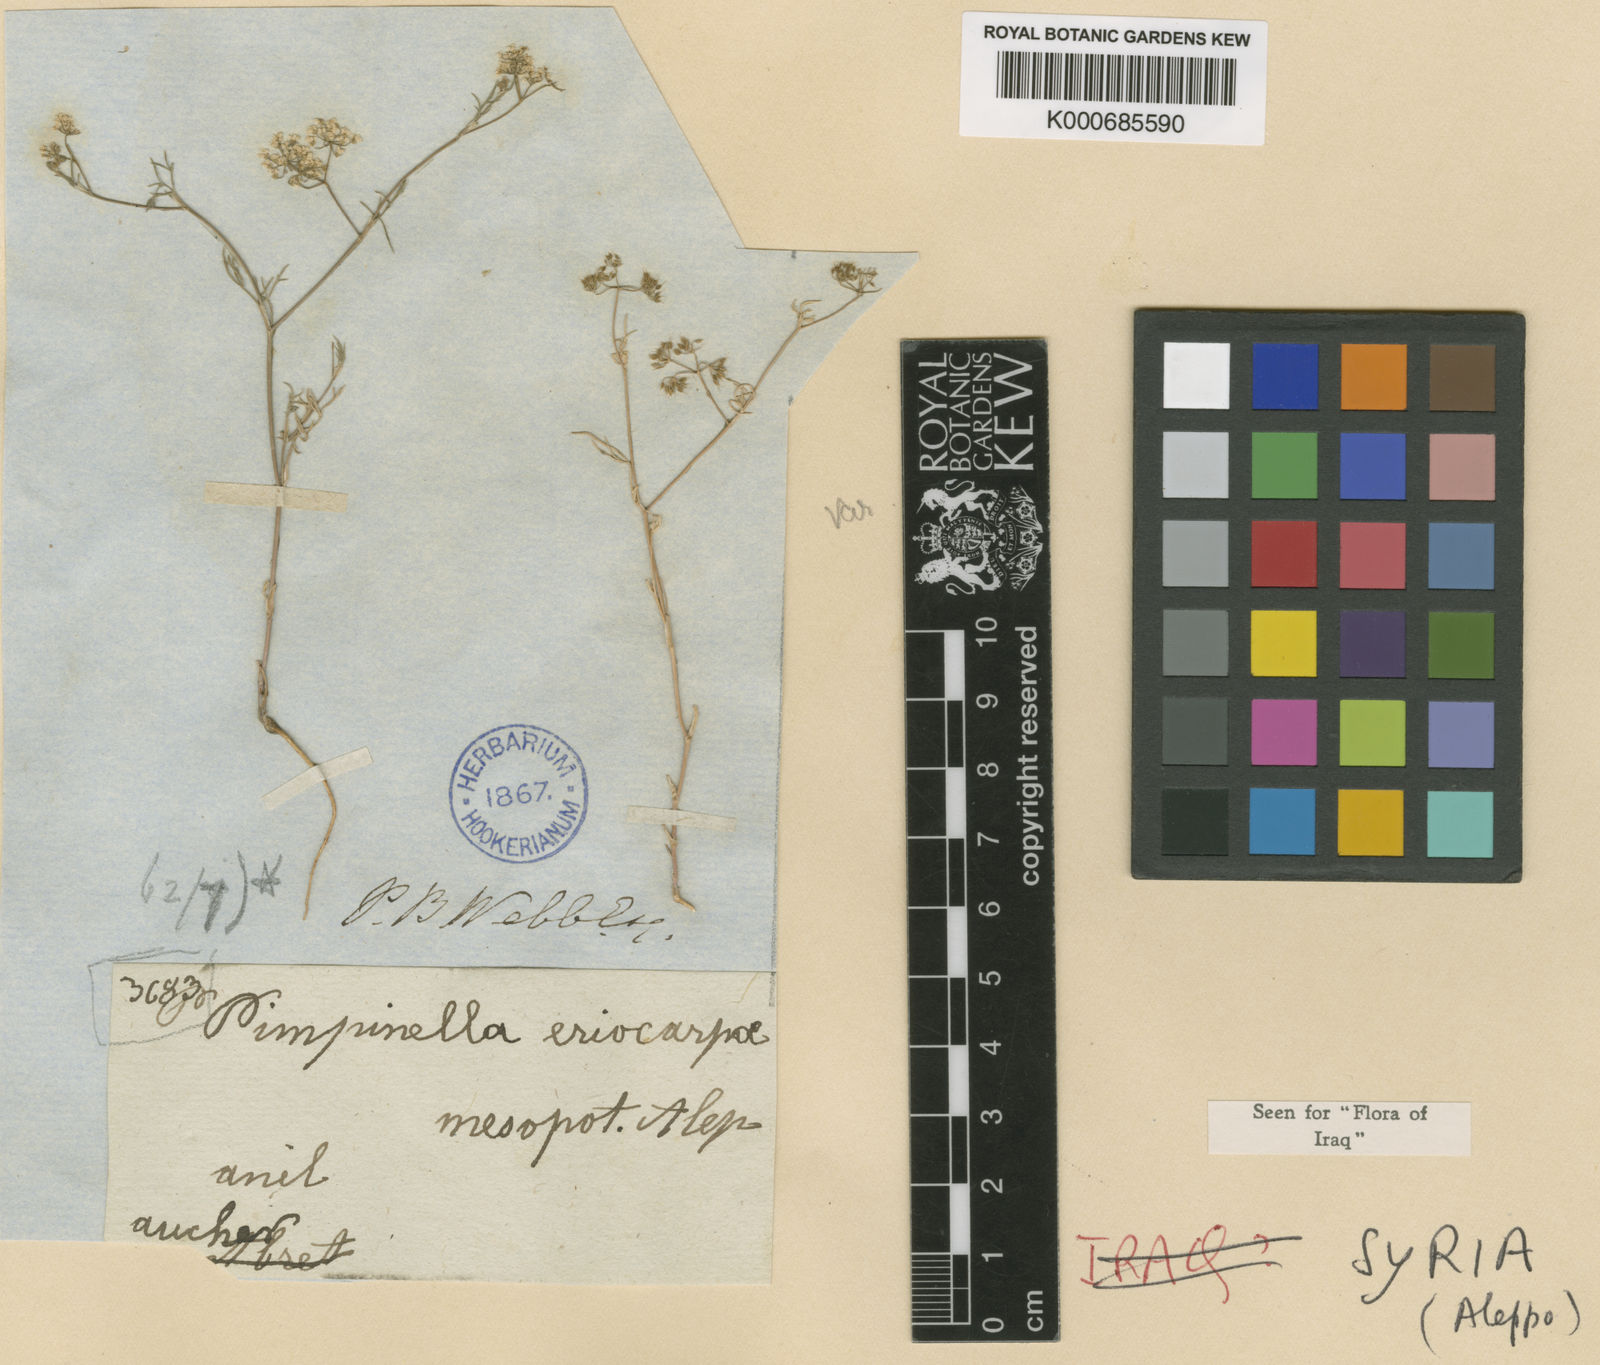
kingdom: Plantae
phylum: Tracheophyta
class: Magnoliopsida
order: Apiales
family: Apiaceae
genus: Pimpinella
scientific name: Pimpinella eriocarpa
